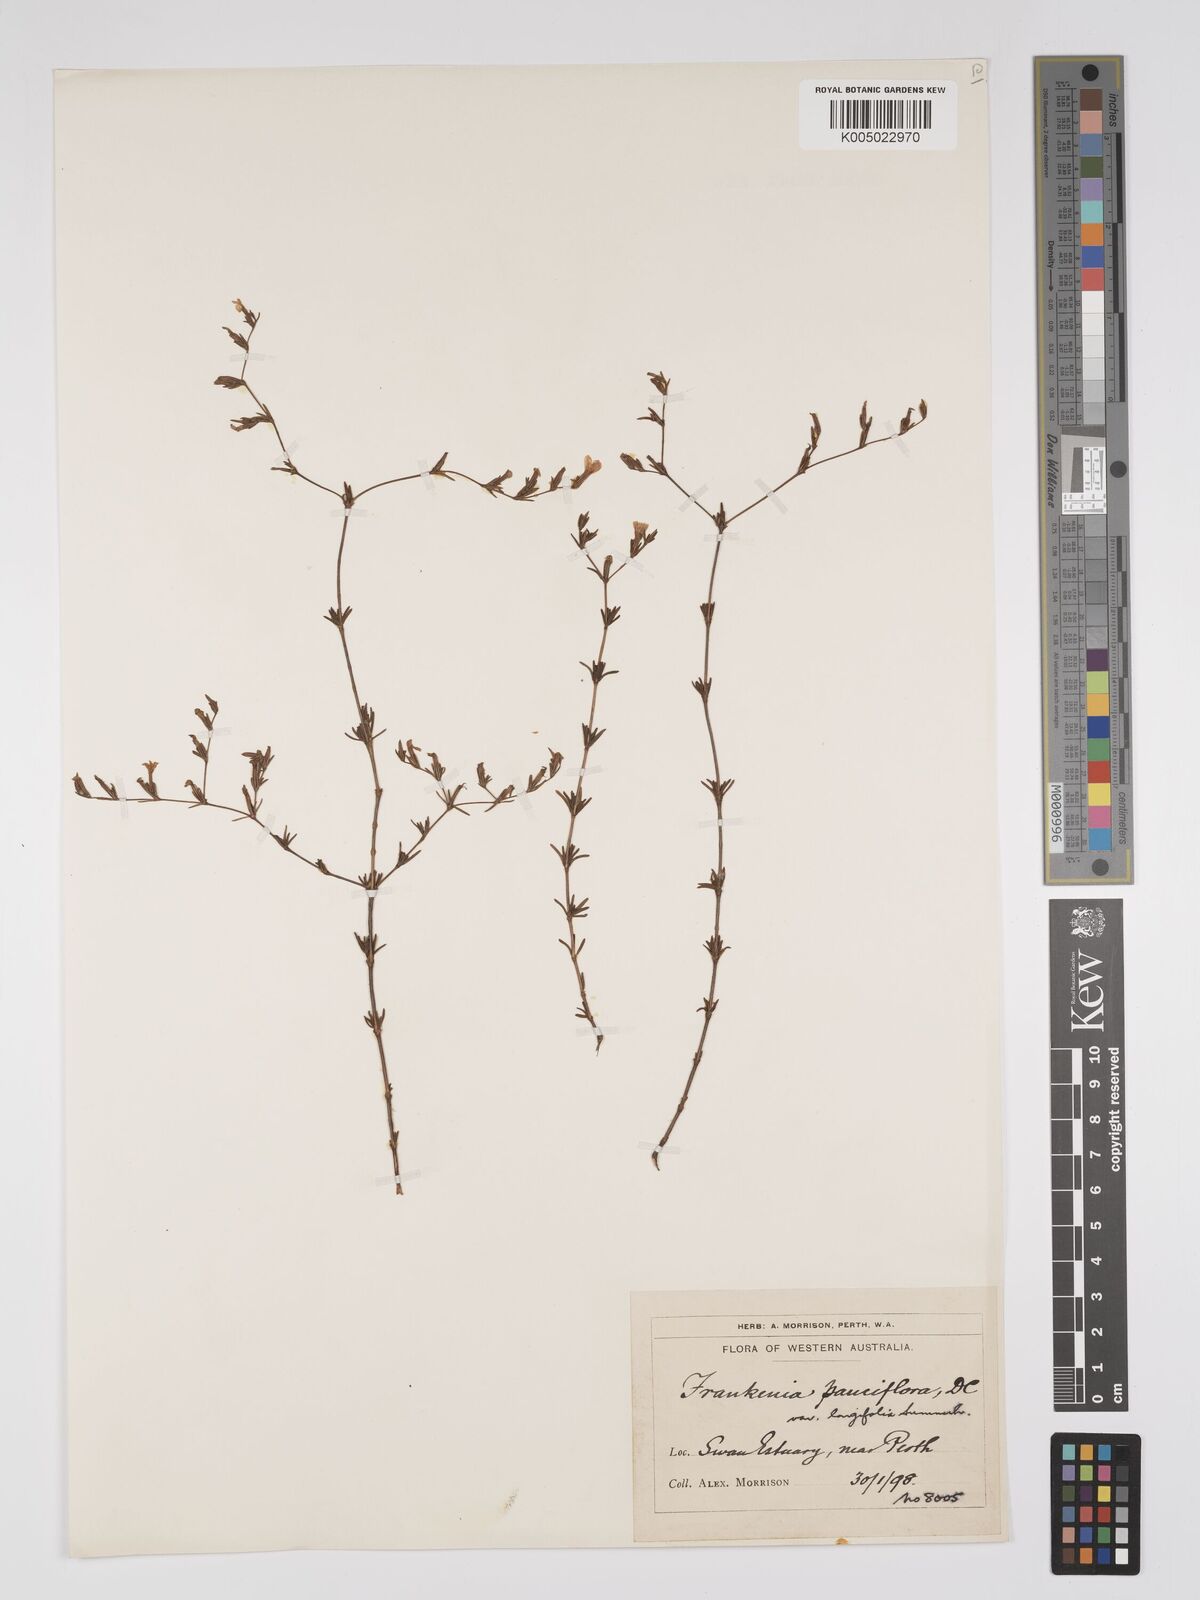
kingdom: Plantae
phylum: Tracheophyta
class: Magnoliopsida
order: Caryophyllales
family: Frankeniaceae
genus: Frankenia
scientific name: Frankenia pauciflora
